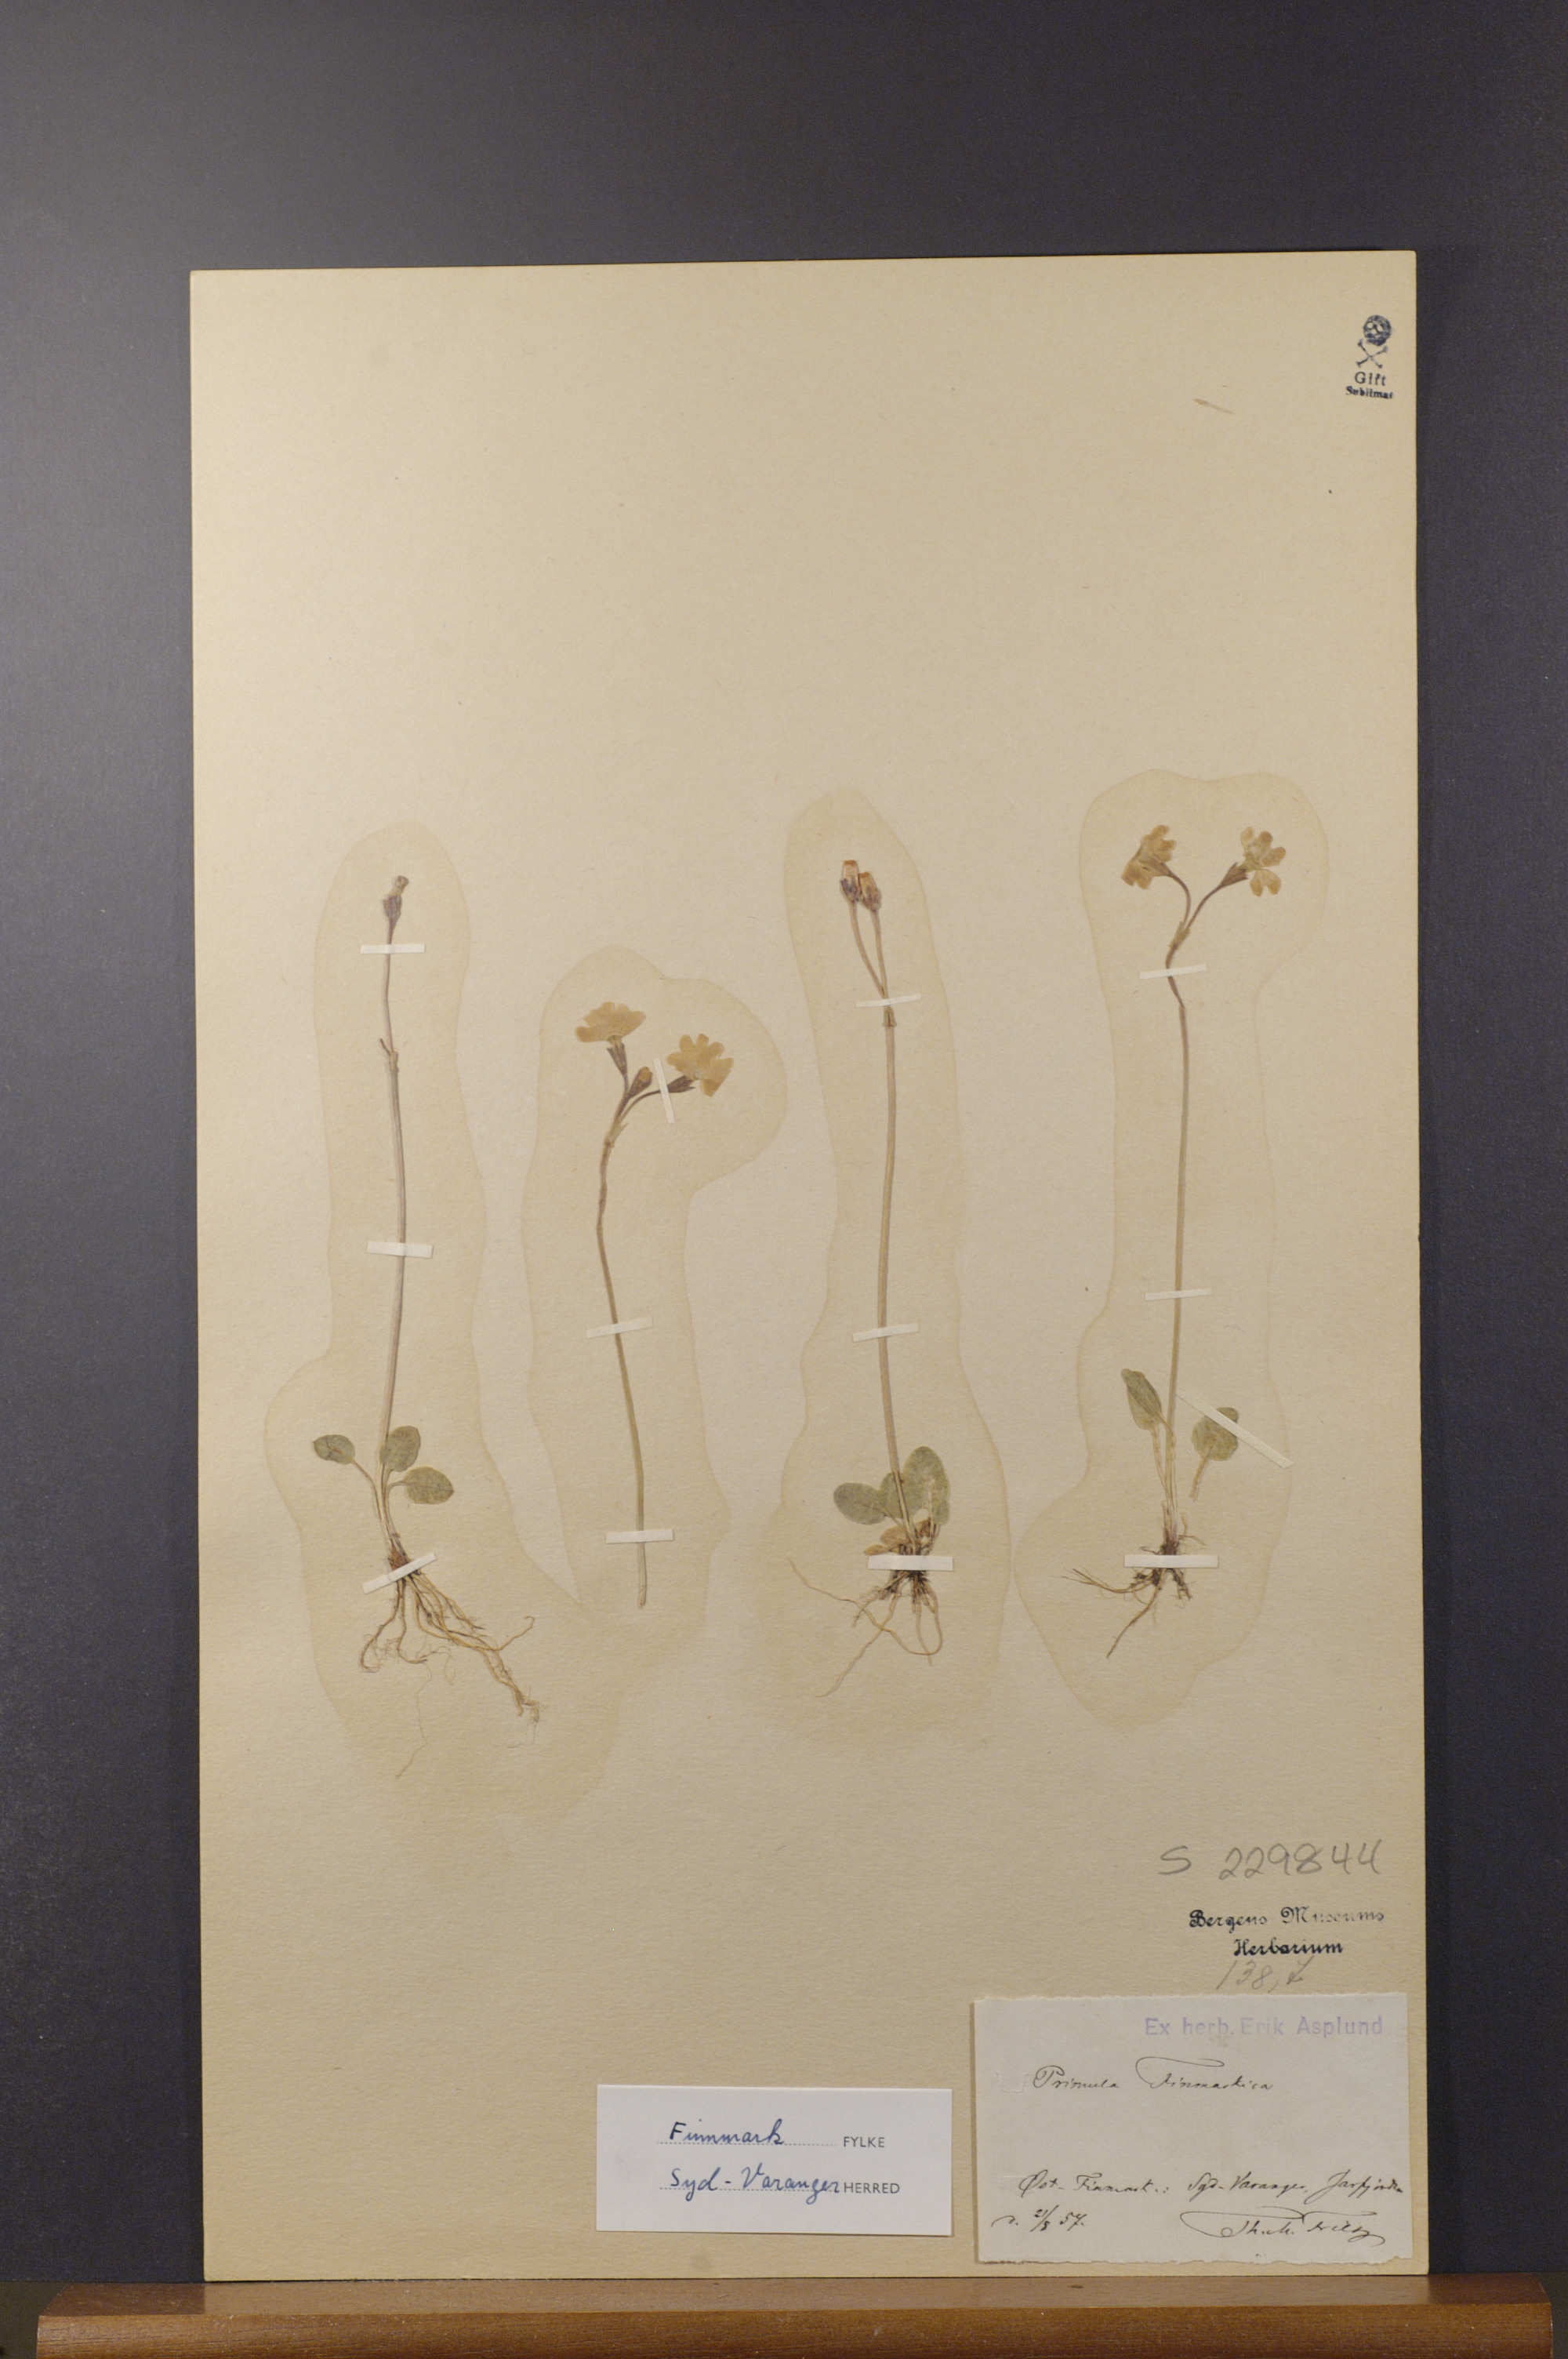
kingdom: Plantae
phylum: Tracheophyta
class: Magnoliopsida
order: Ericales
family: Primulaceae
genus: Primula
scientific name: Primula nutans
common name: Siberian primrose
